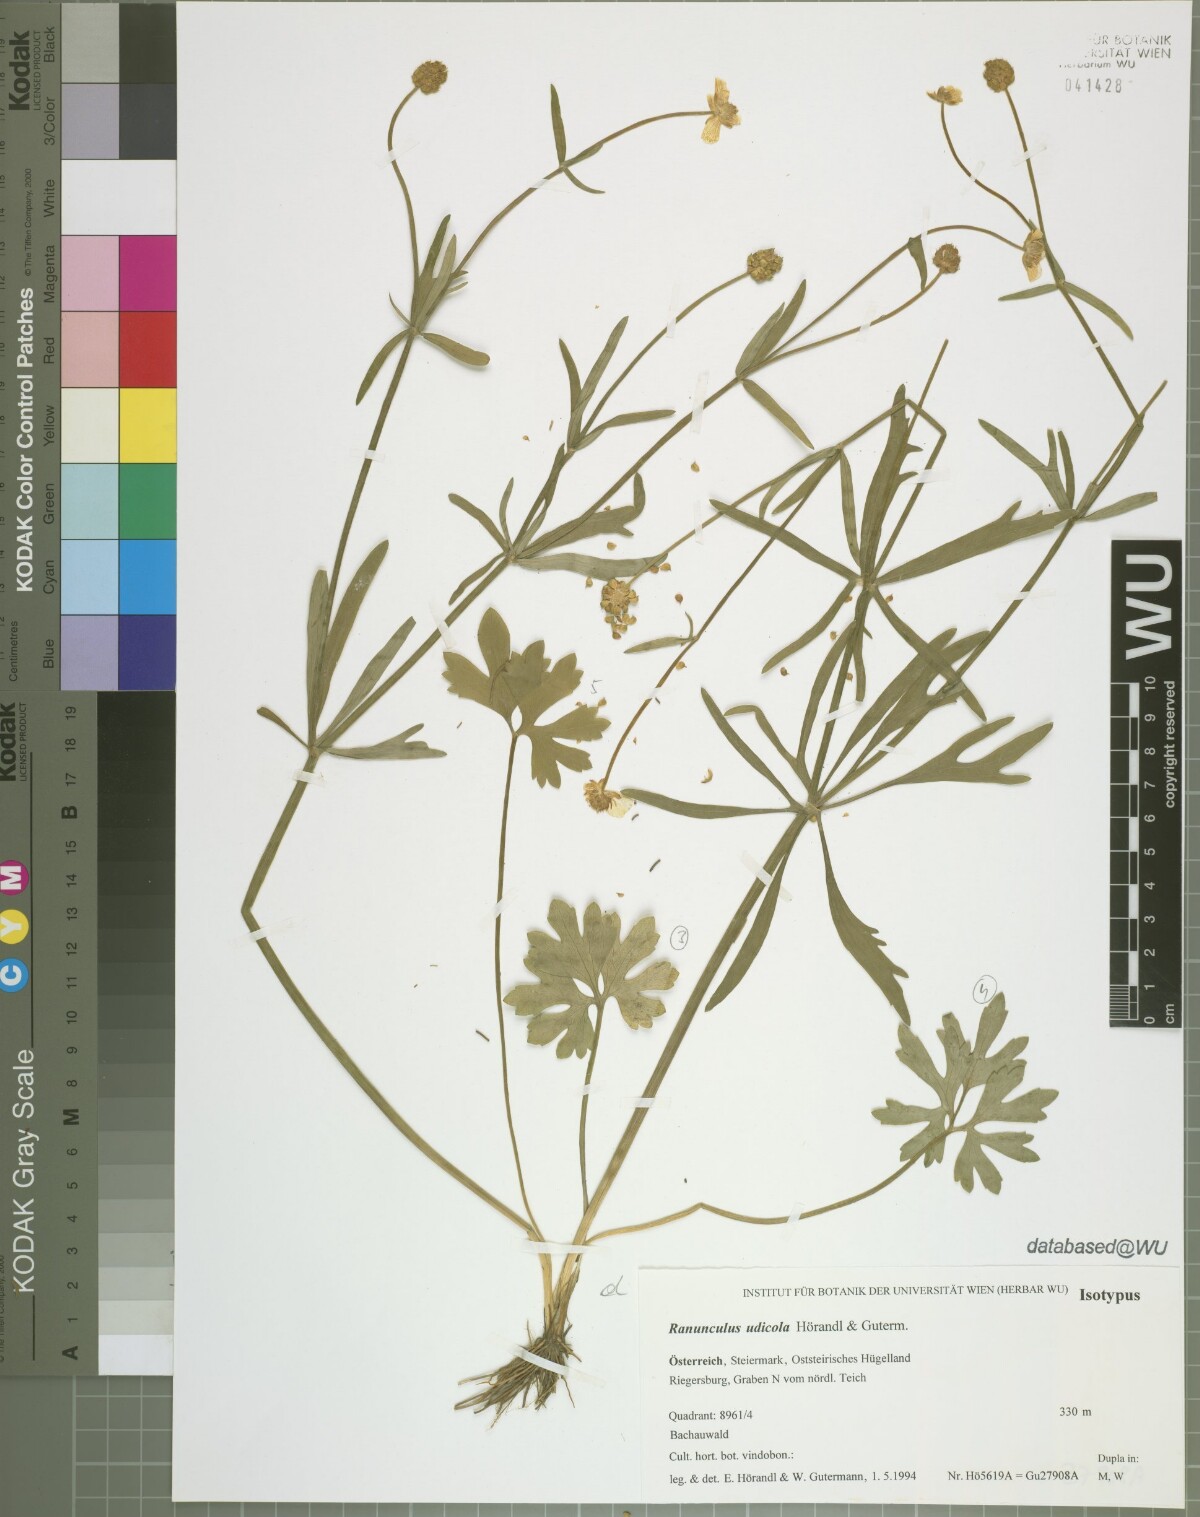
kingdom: Plantae
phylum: Tracheophyta
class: Magnoliopsida
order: Ranunculales
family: Ranunculaceae
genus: Ranunculus
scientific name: Ranunculus udicola
